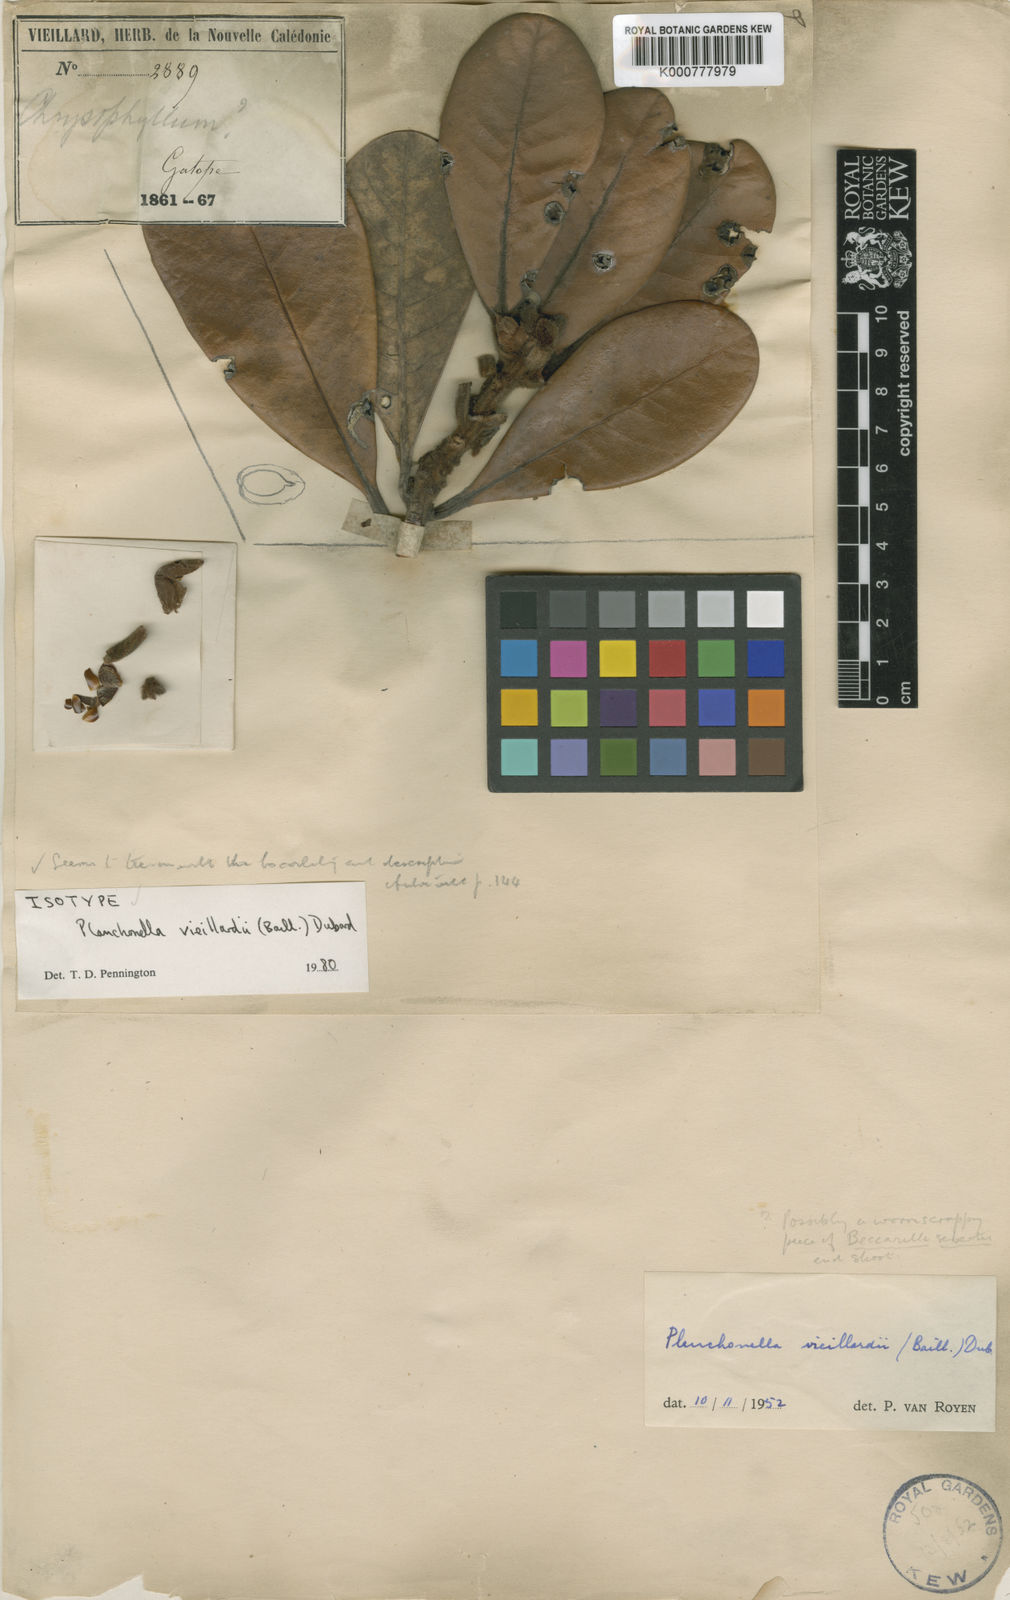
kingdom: Plantae
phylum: Tracheophyta
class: Magnoliopsida
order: Ericales
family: Sapotaceae
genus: Pleioluma
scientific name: Pleioluma vieillardii
